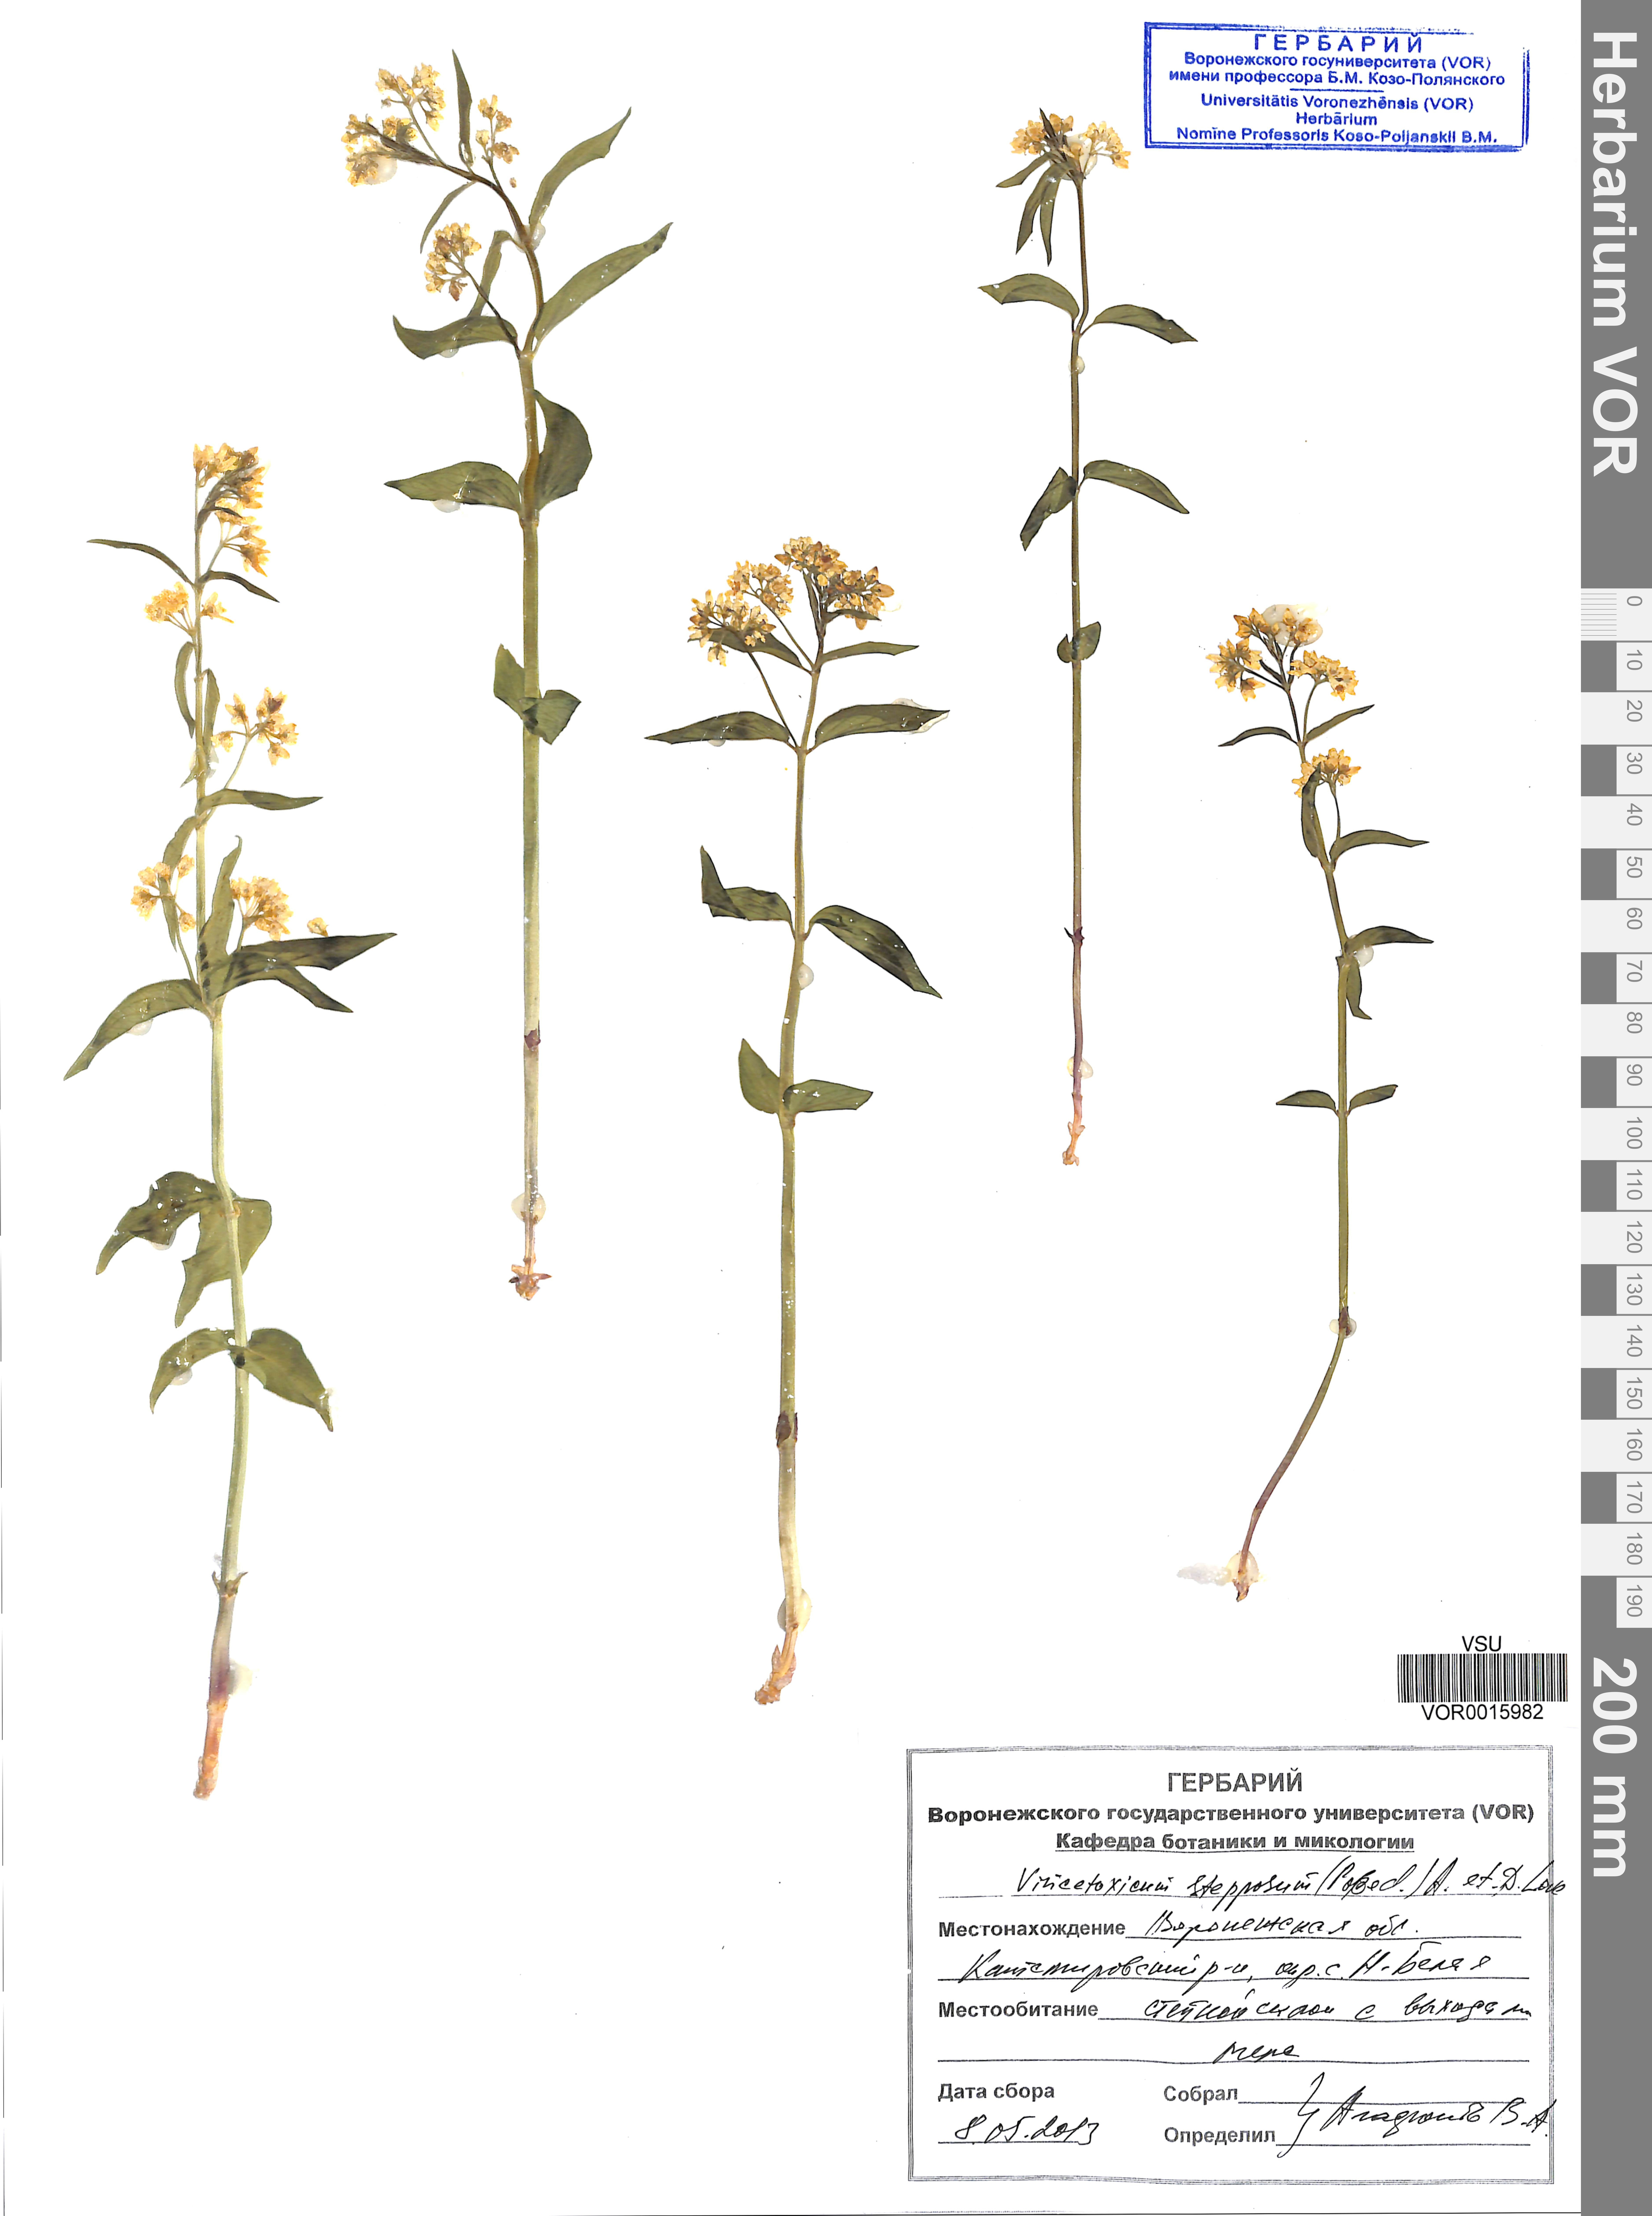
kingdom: Plantae
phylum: Tracheophyta
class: Magnoliopsida
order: Gentianales
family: Apocynaceae
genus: Vincetoxicum
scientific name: Vincetoxicum hirundinaria
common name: White swallowwort
